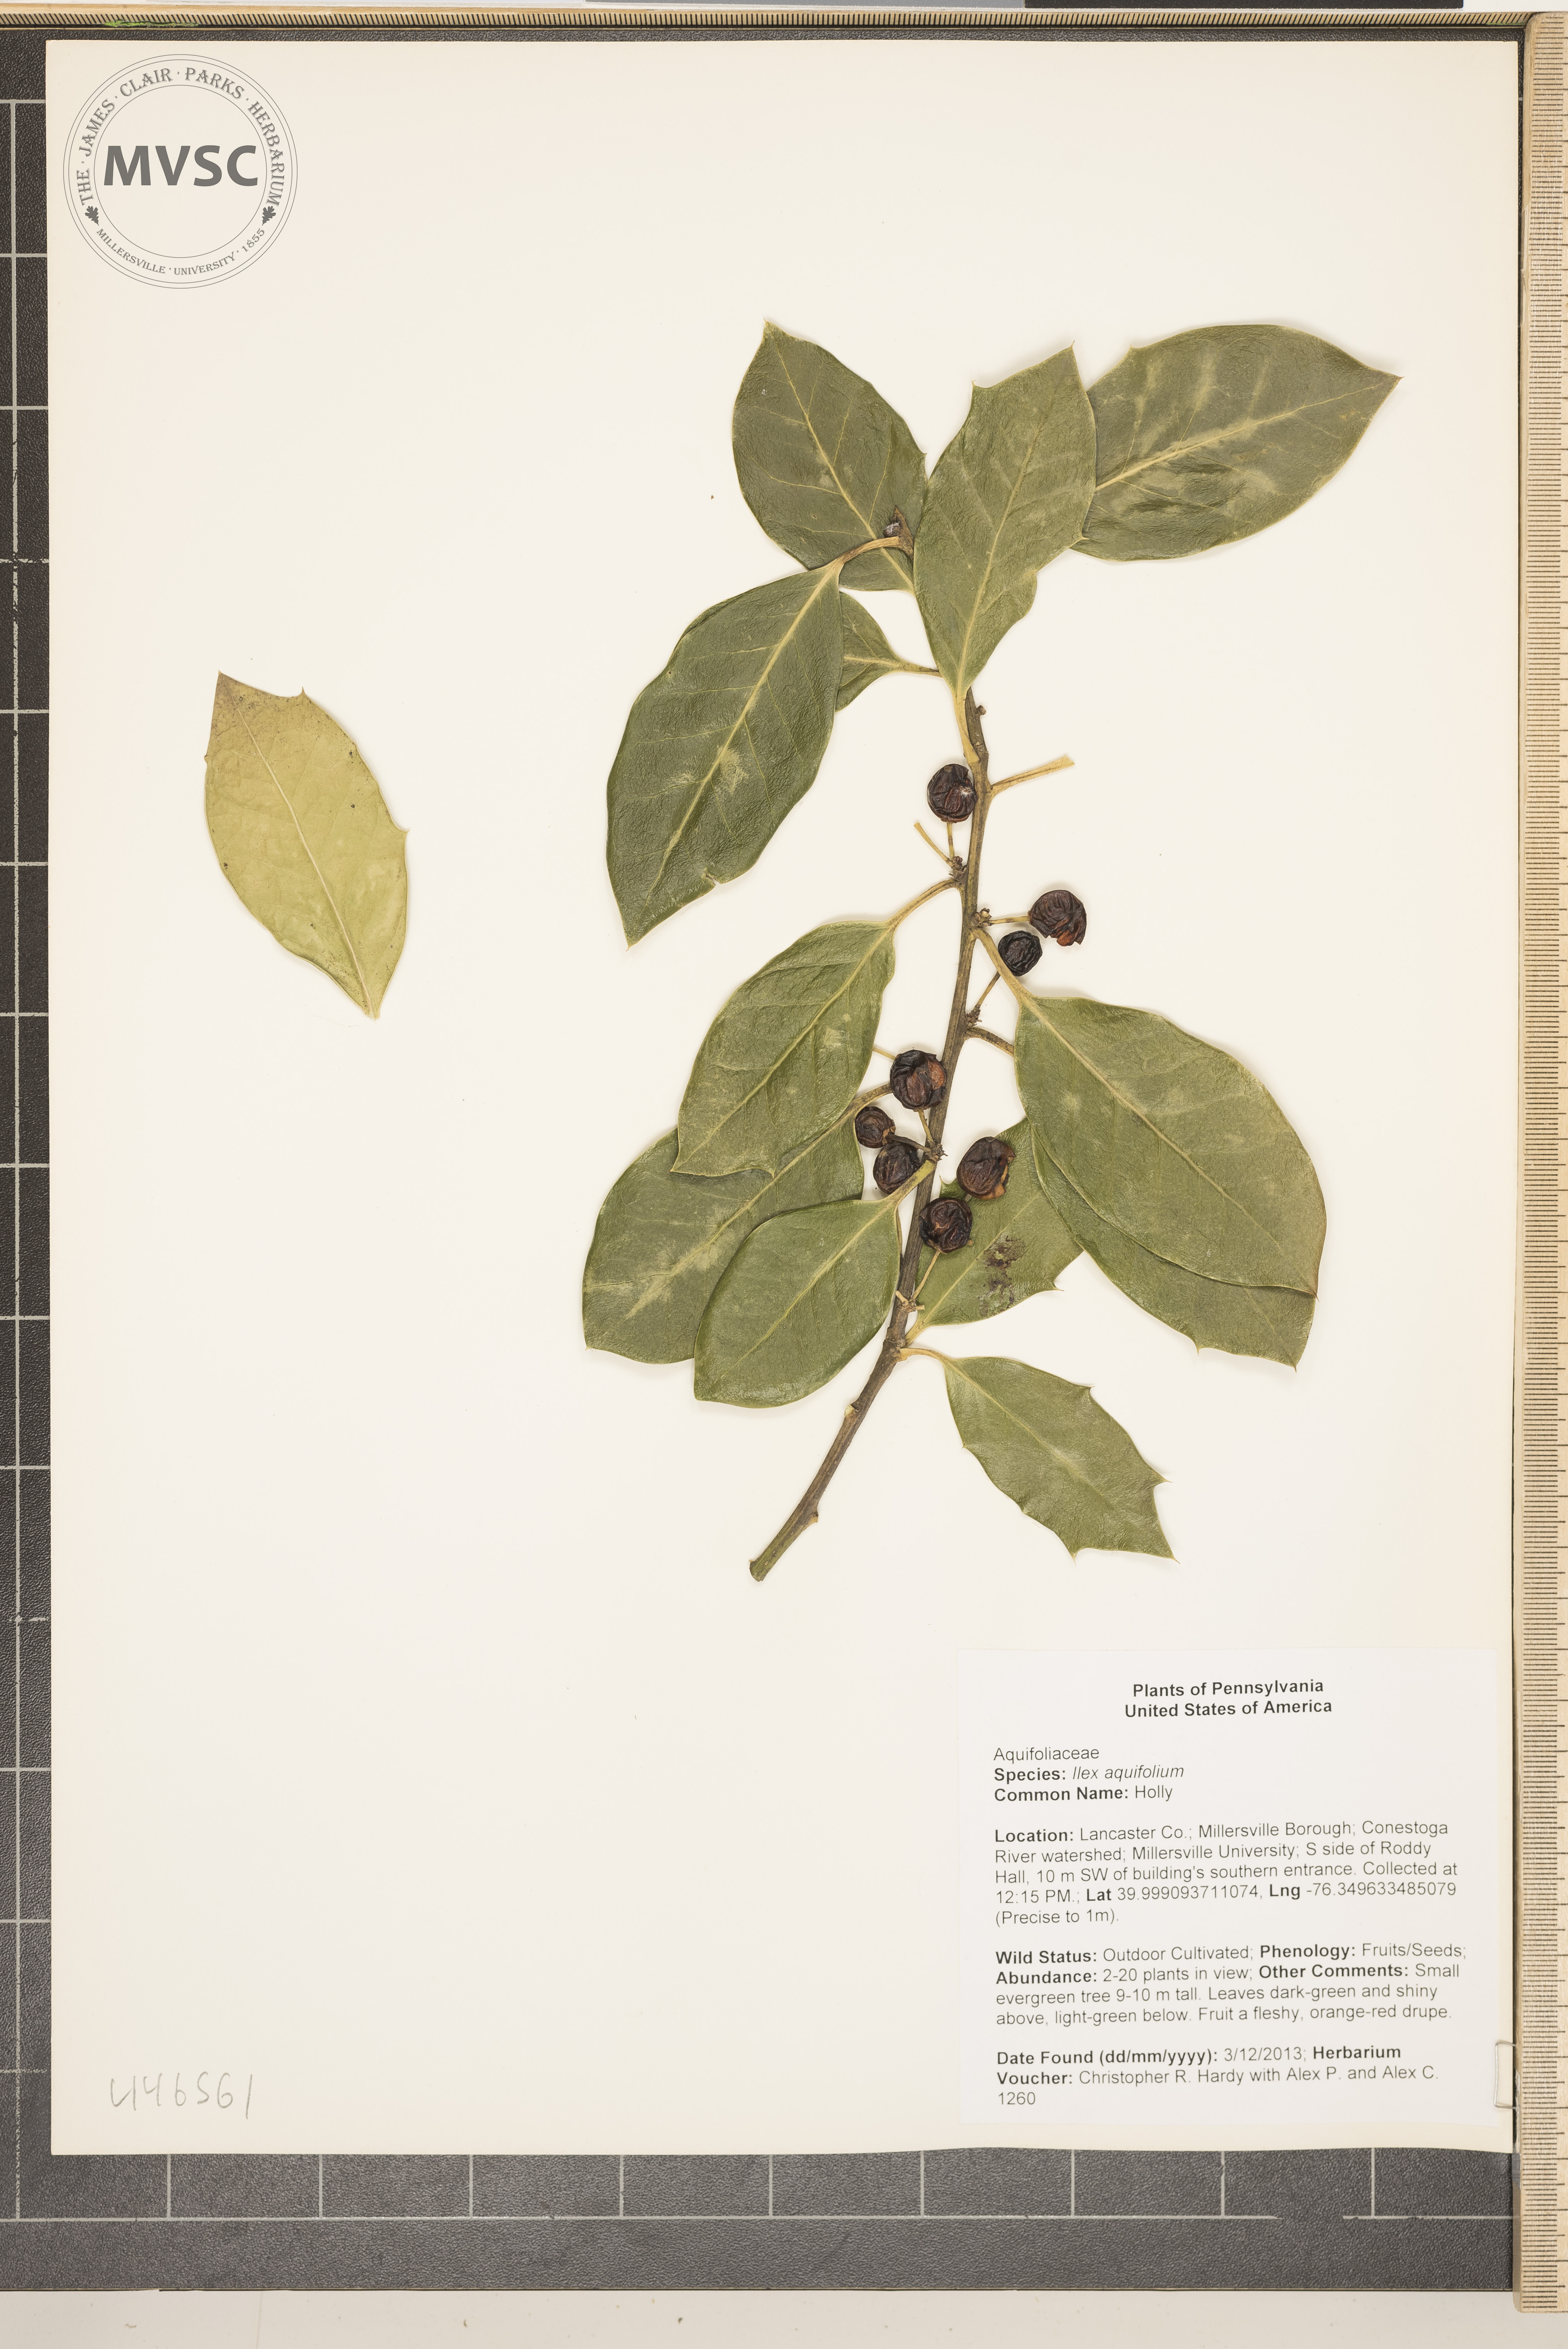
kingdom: Plantae
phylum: Tracheophyta
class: Magnoliopsida
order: Aquifoliales
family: Aquifoliaceae
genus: Ilex
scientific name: Ilex aquifolium
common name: Holly
